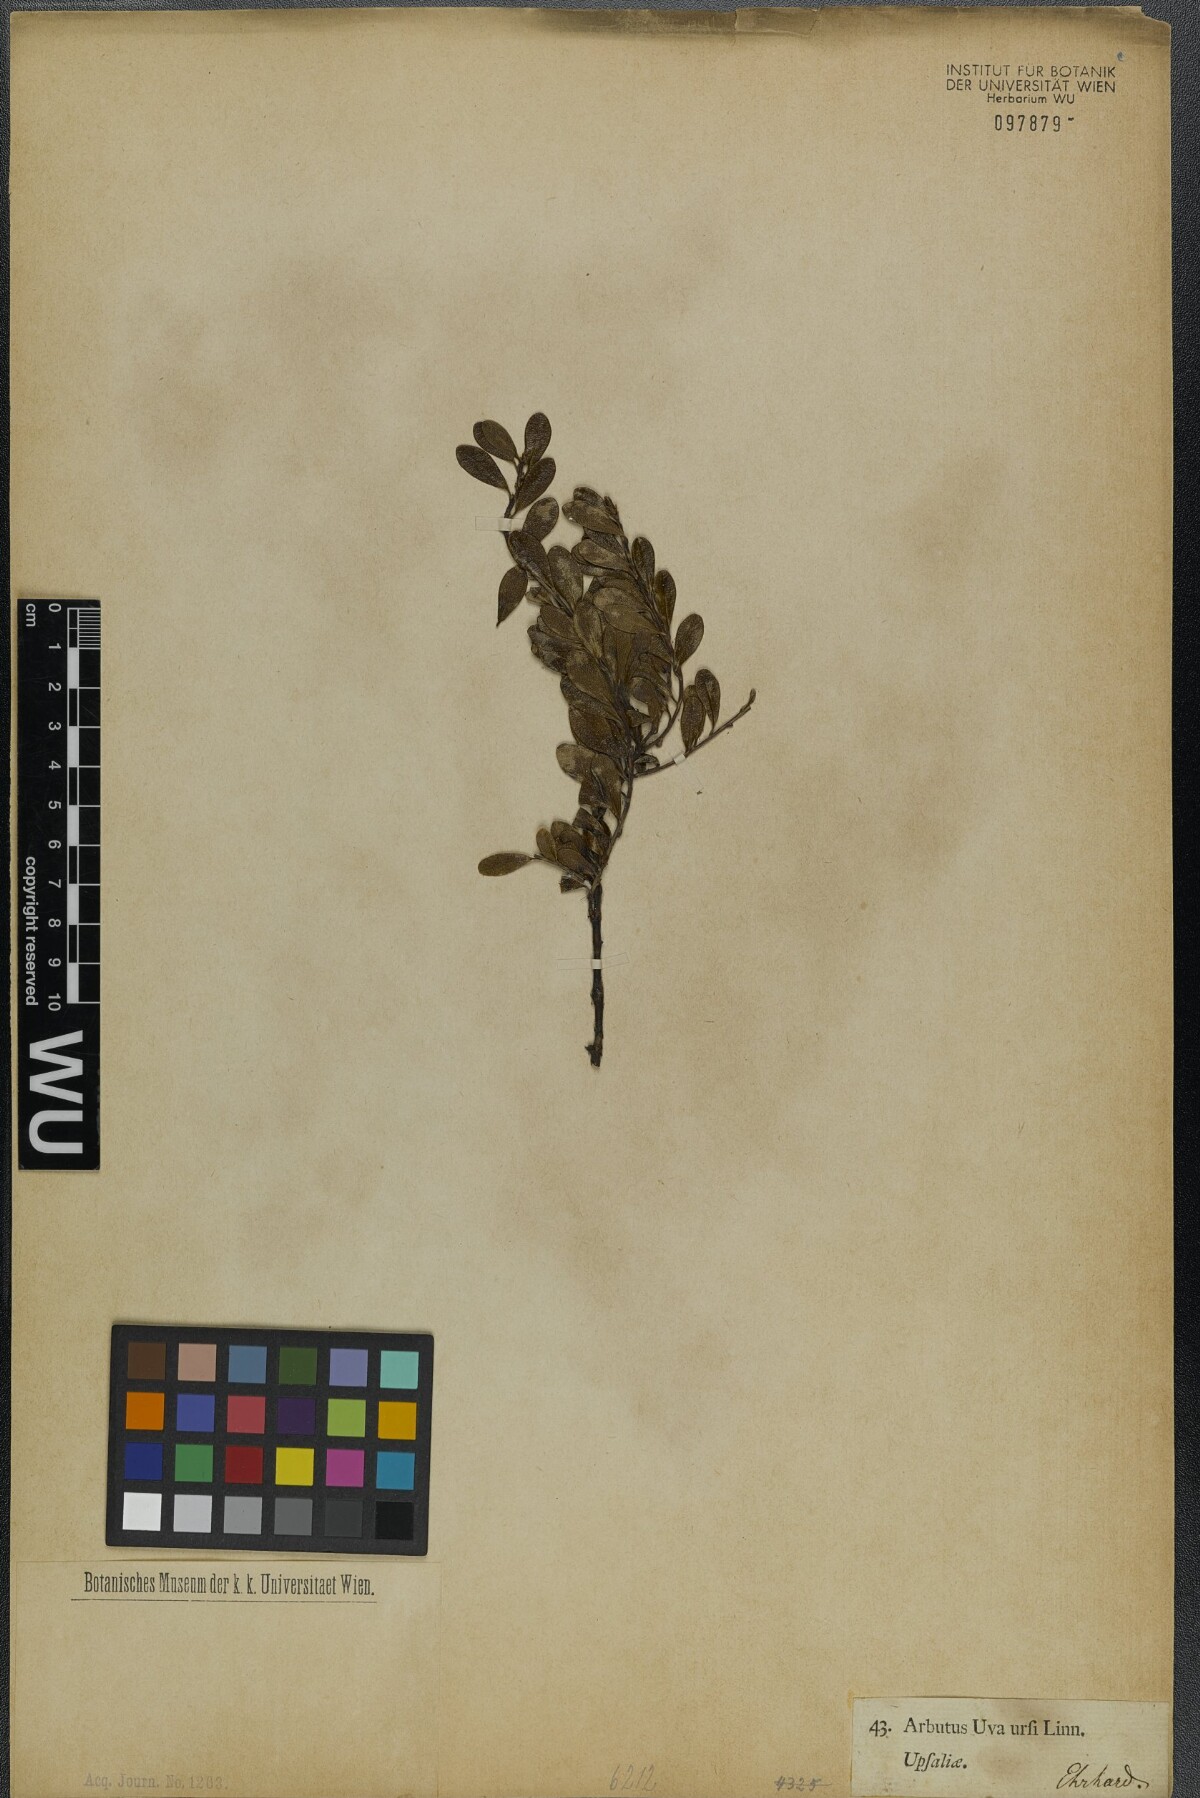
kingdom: Plantae
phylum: Tracheophyta
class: Magnoliopsida
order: Ericales
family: Ericaceae
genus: Arctostaphylos
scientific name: Arctostaphylos uva-ursi
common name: Bearberry
